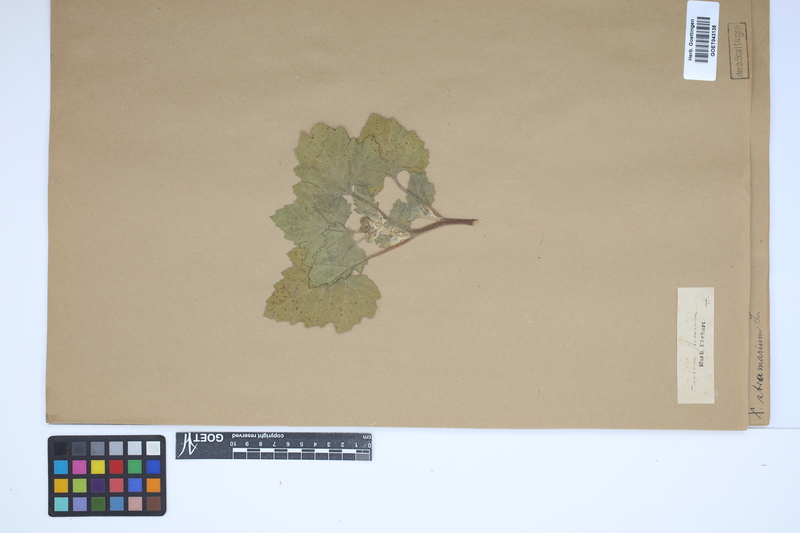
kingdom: Plantae
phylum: Tracheophyta
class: Magnoliopsida
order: Asterales
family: Asteraceae
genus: Xanthium
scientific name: Xanthium strumarium
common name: Rough cocklebur
